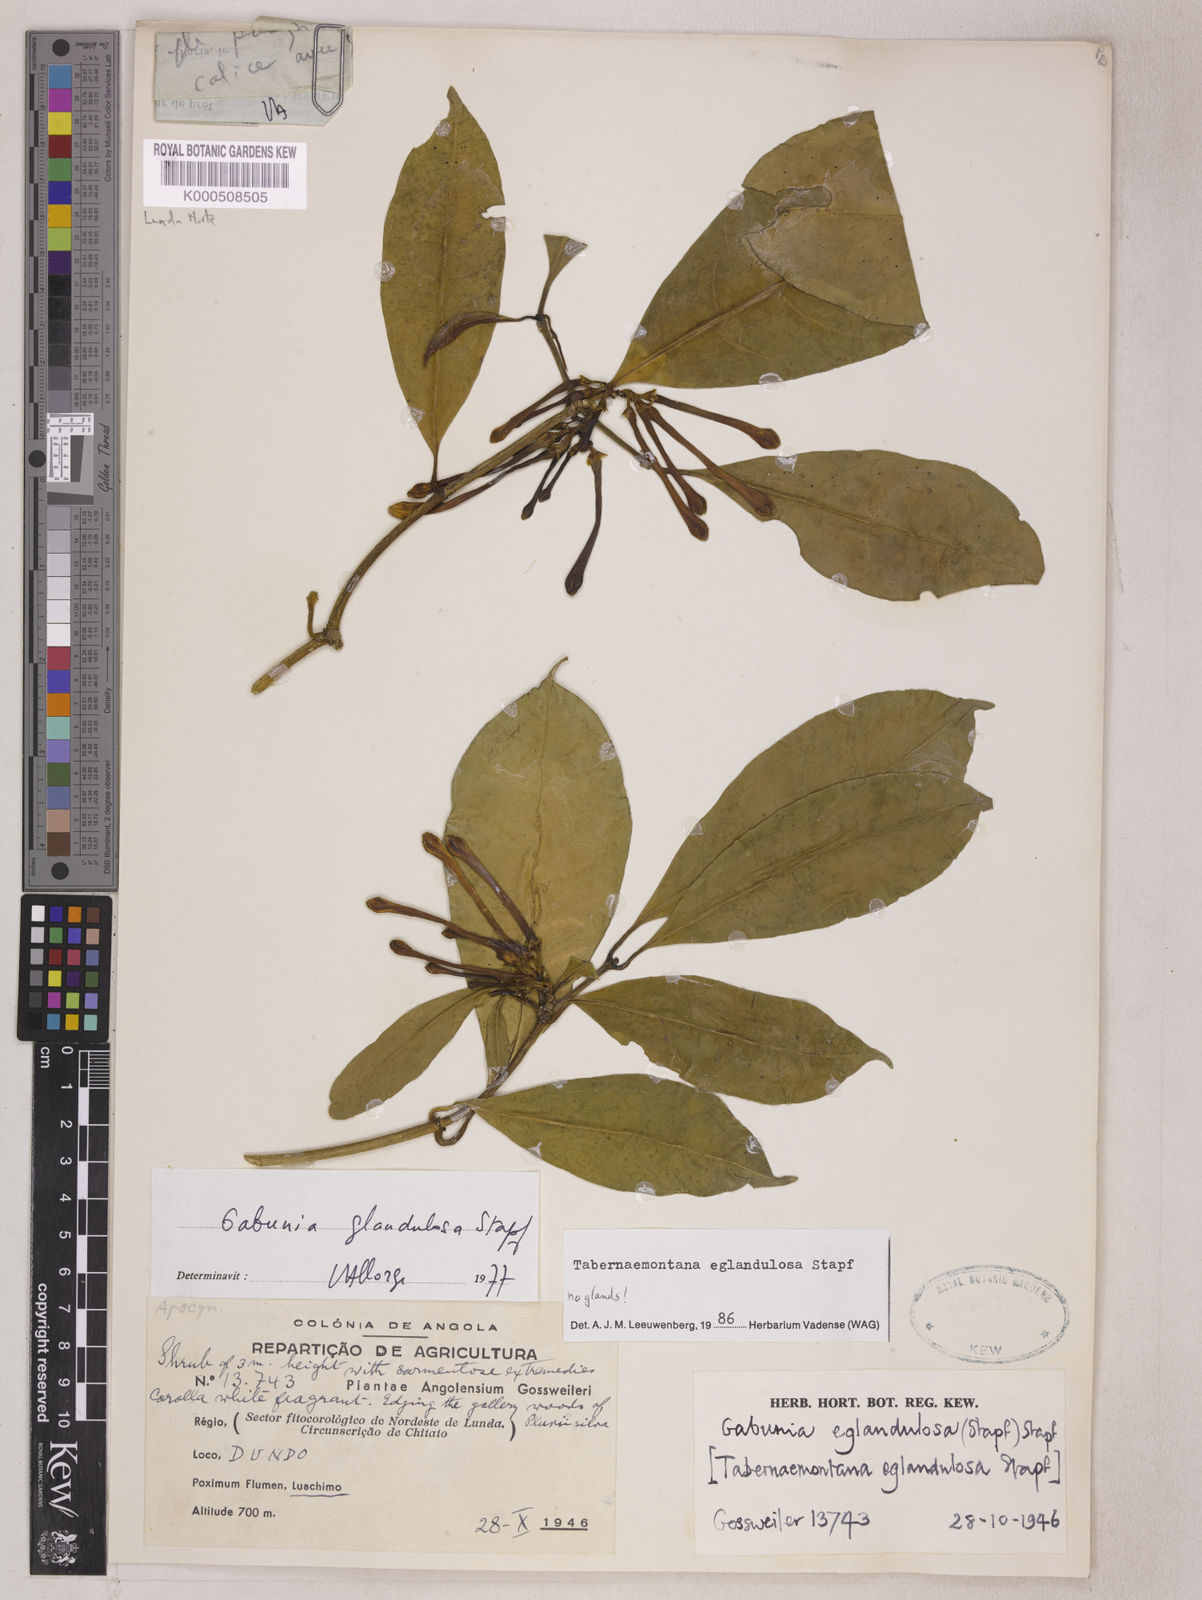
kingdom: Plantae
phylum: Tracheophyta
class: Magnoliopsida
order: Gentianales
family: Apocynaceae
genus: Tabernaemontana
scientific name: Tabernaemontana eglandulosa
